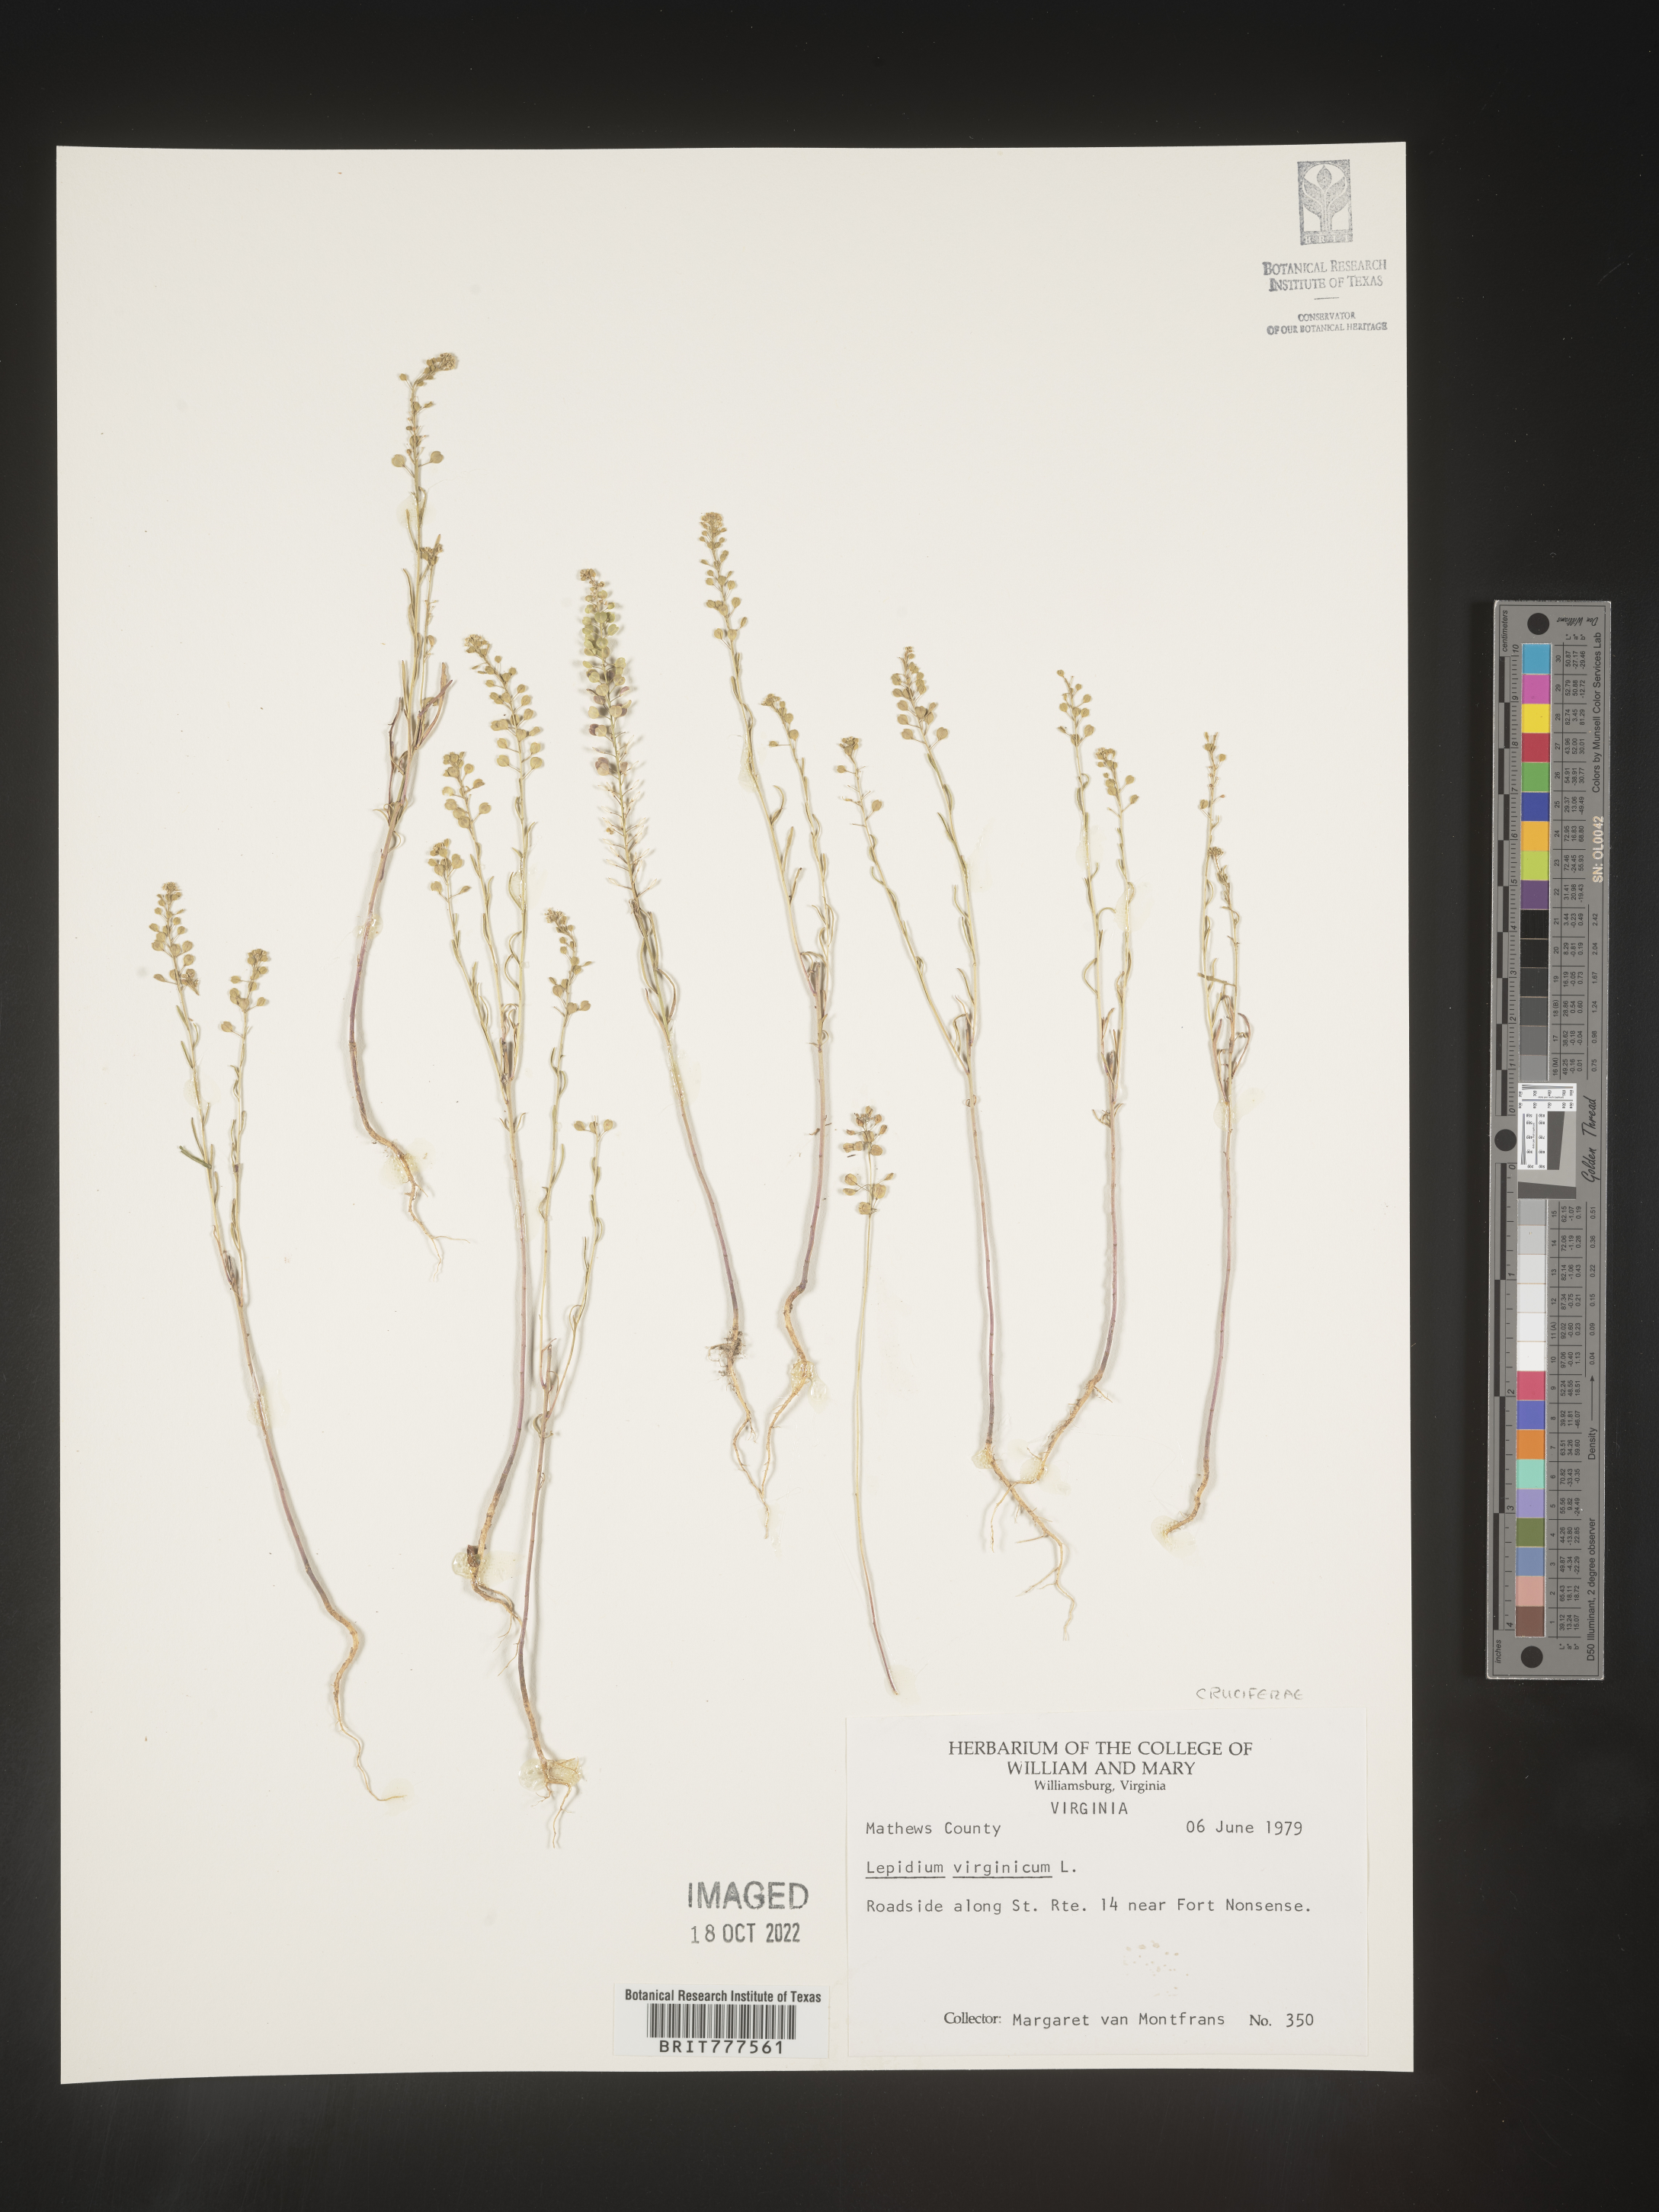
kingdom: Plantae
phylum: Tracheophyta
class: Magnoliopsida
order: Brassicales
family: Brassicaceae
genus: Lepidium
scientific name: Lepidium virginicum
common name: Least pepperwort
